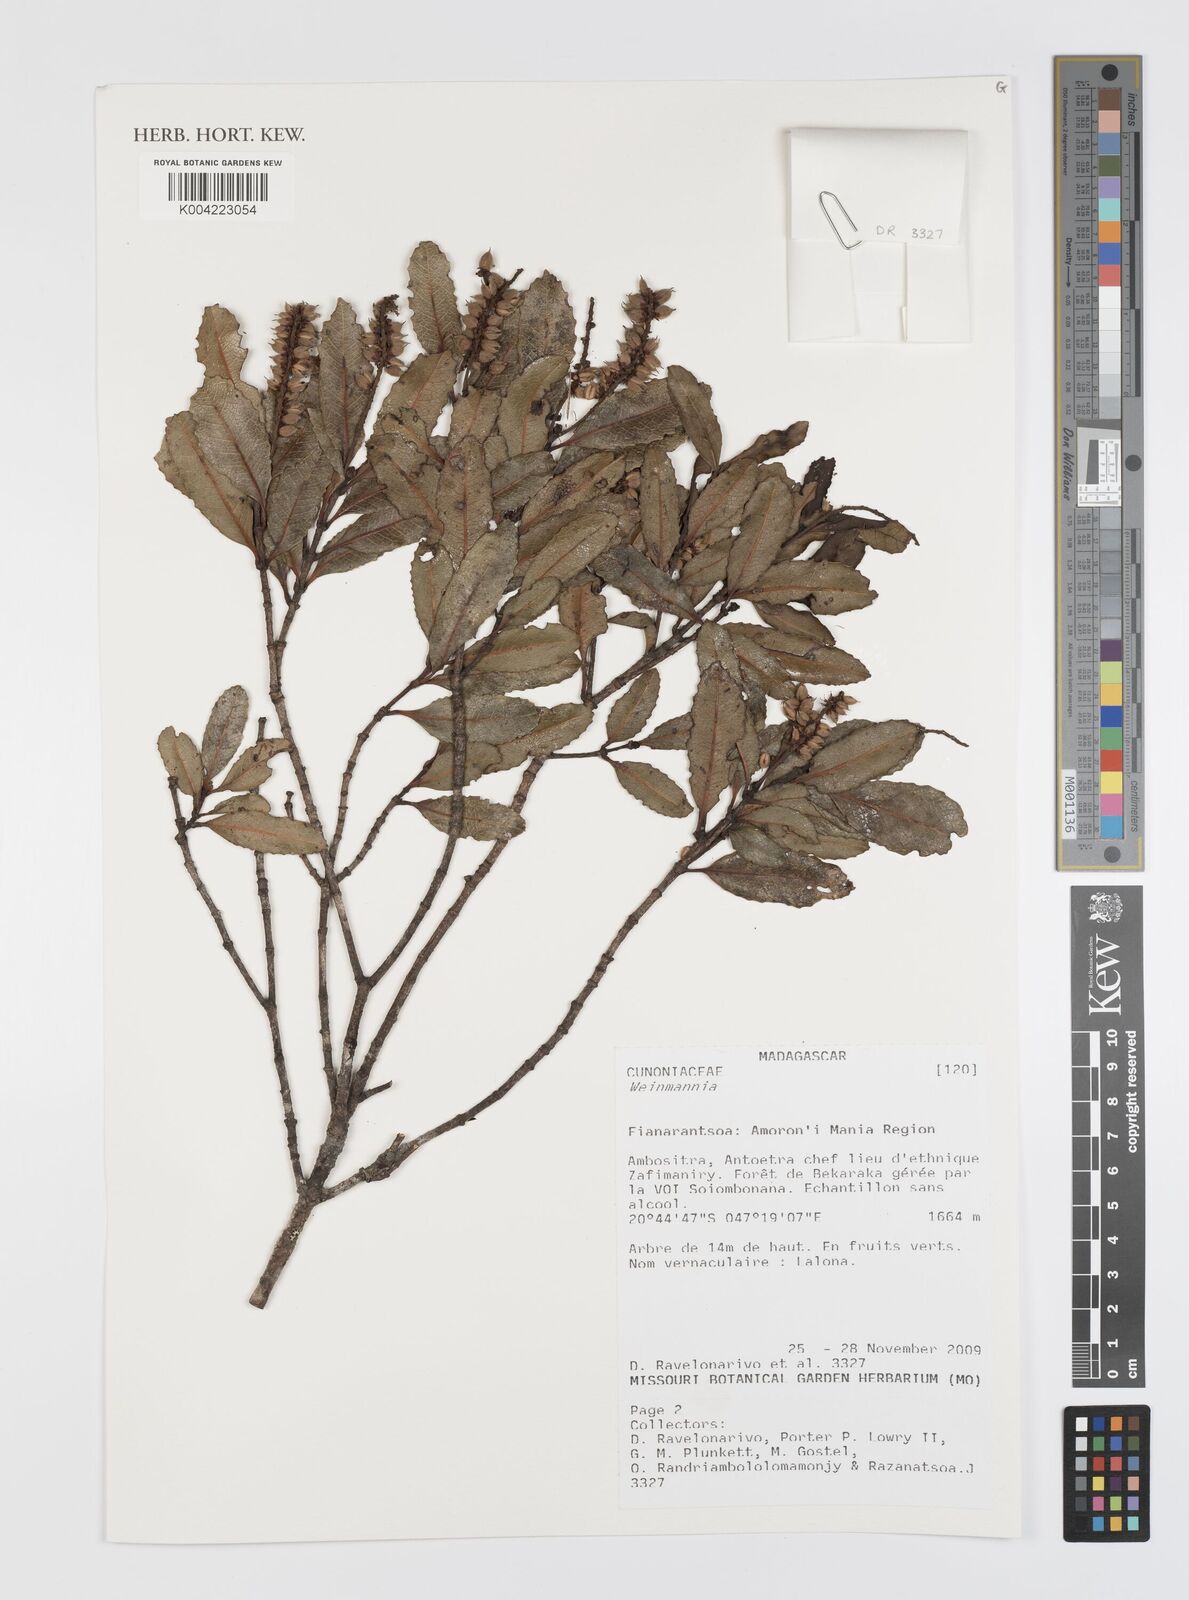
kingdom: Plantae
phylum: Tracheophyta
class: Magnoliopsida
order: Oxalidales
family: Cunoniaceae
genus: Weinmannia
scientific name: Weinmannia
